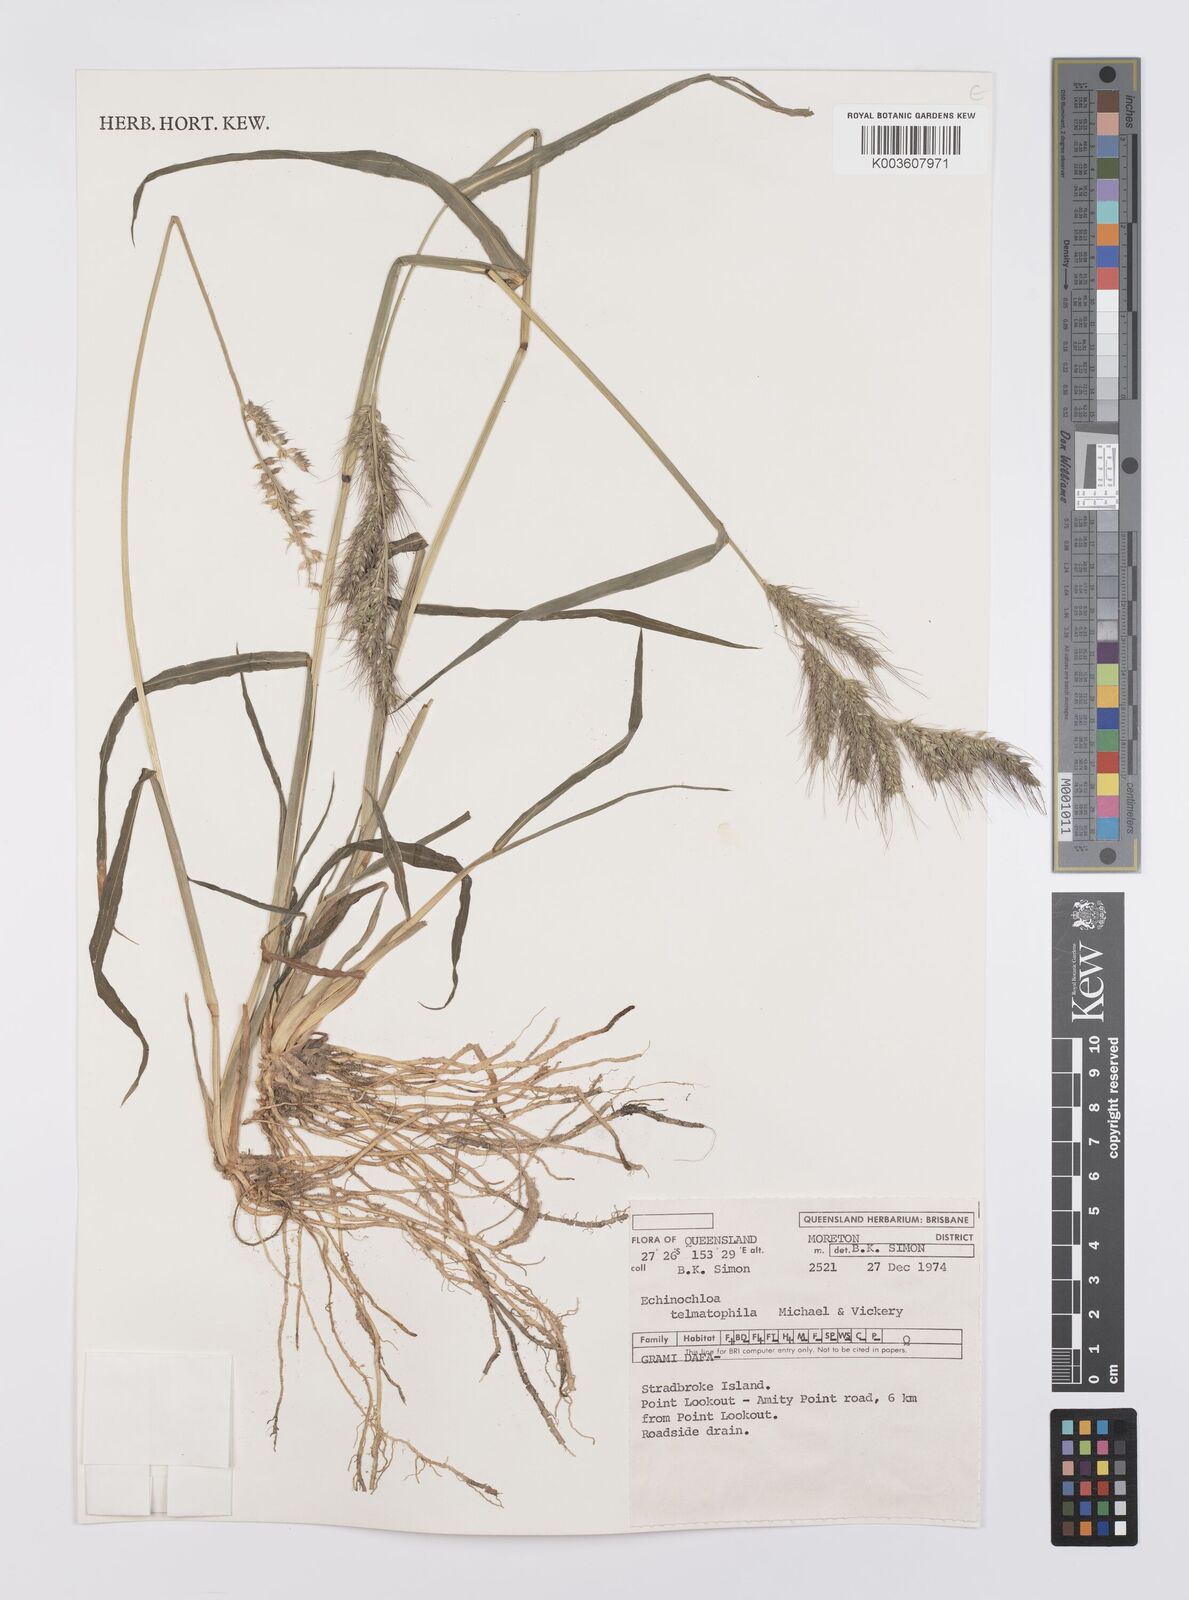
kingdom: Plantae
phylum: Tracheophyta
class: Liliopsida
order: Poales
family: Poaceae
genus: Echinochloa
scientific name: Echinochloa crus-galli
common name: Cockspur
